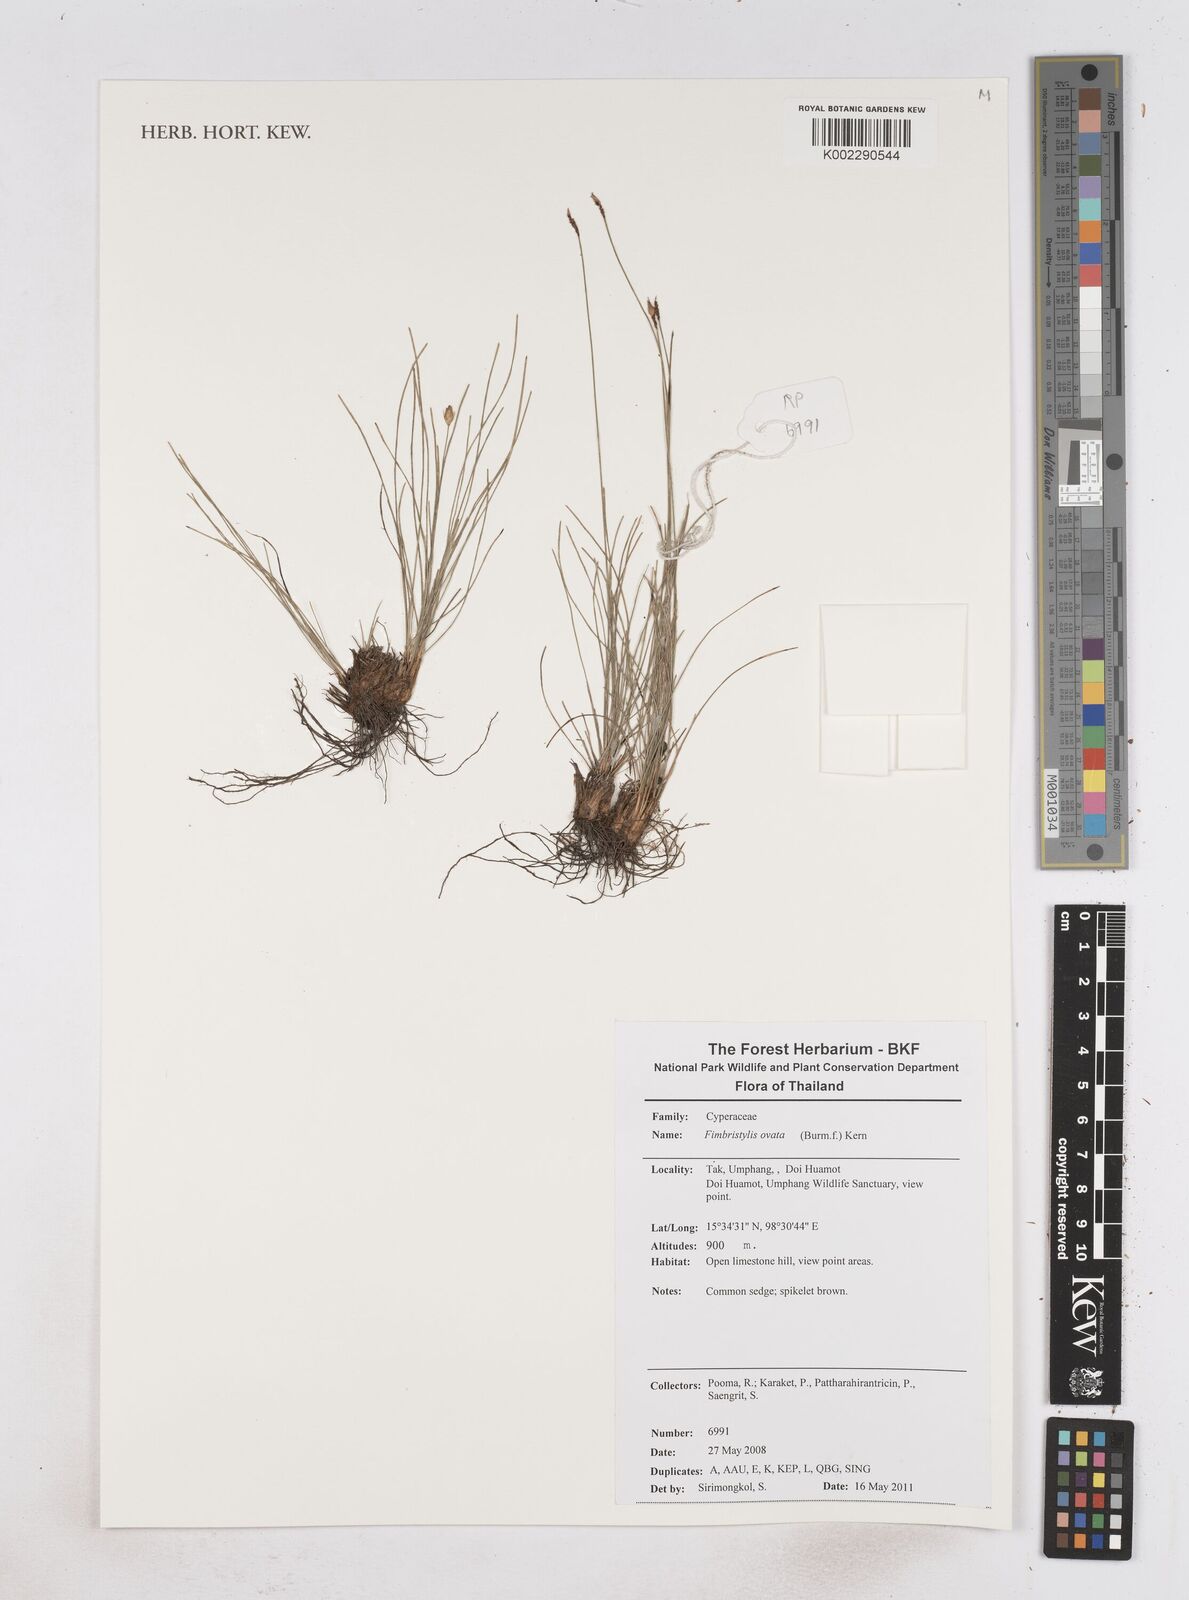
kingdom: Plantae
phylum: Tracheophyta
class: Liliopsida
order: Poales
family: Cyperaceae
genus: Abildgaardia
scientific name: Abildgaardia ovata
